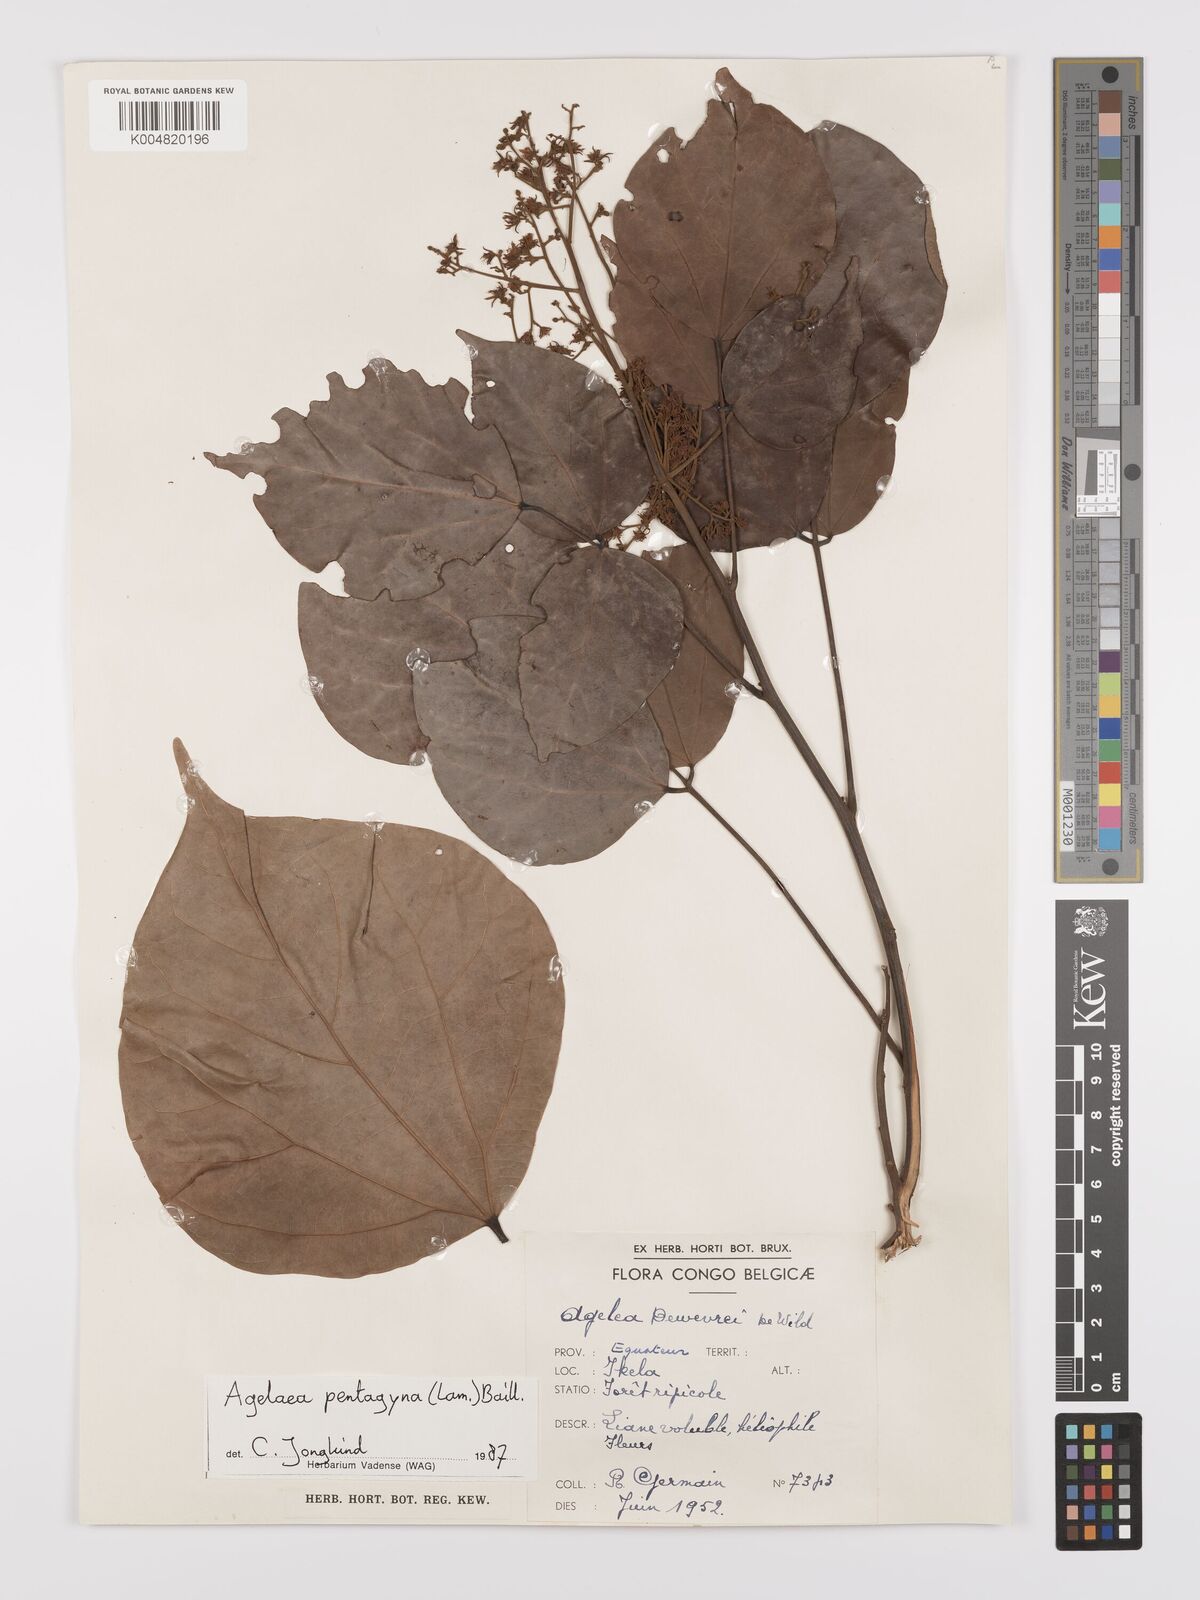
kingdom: Plantae
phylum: Tracheophyta
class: Magnoliopsida
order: Oxalidales
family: Connaraceae
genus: Agelaea
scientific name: Agelaea pentagyna
